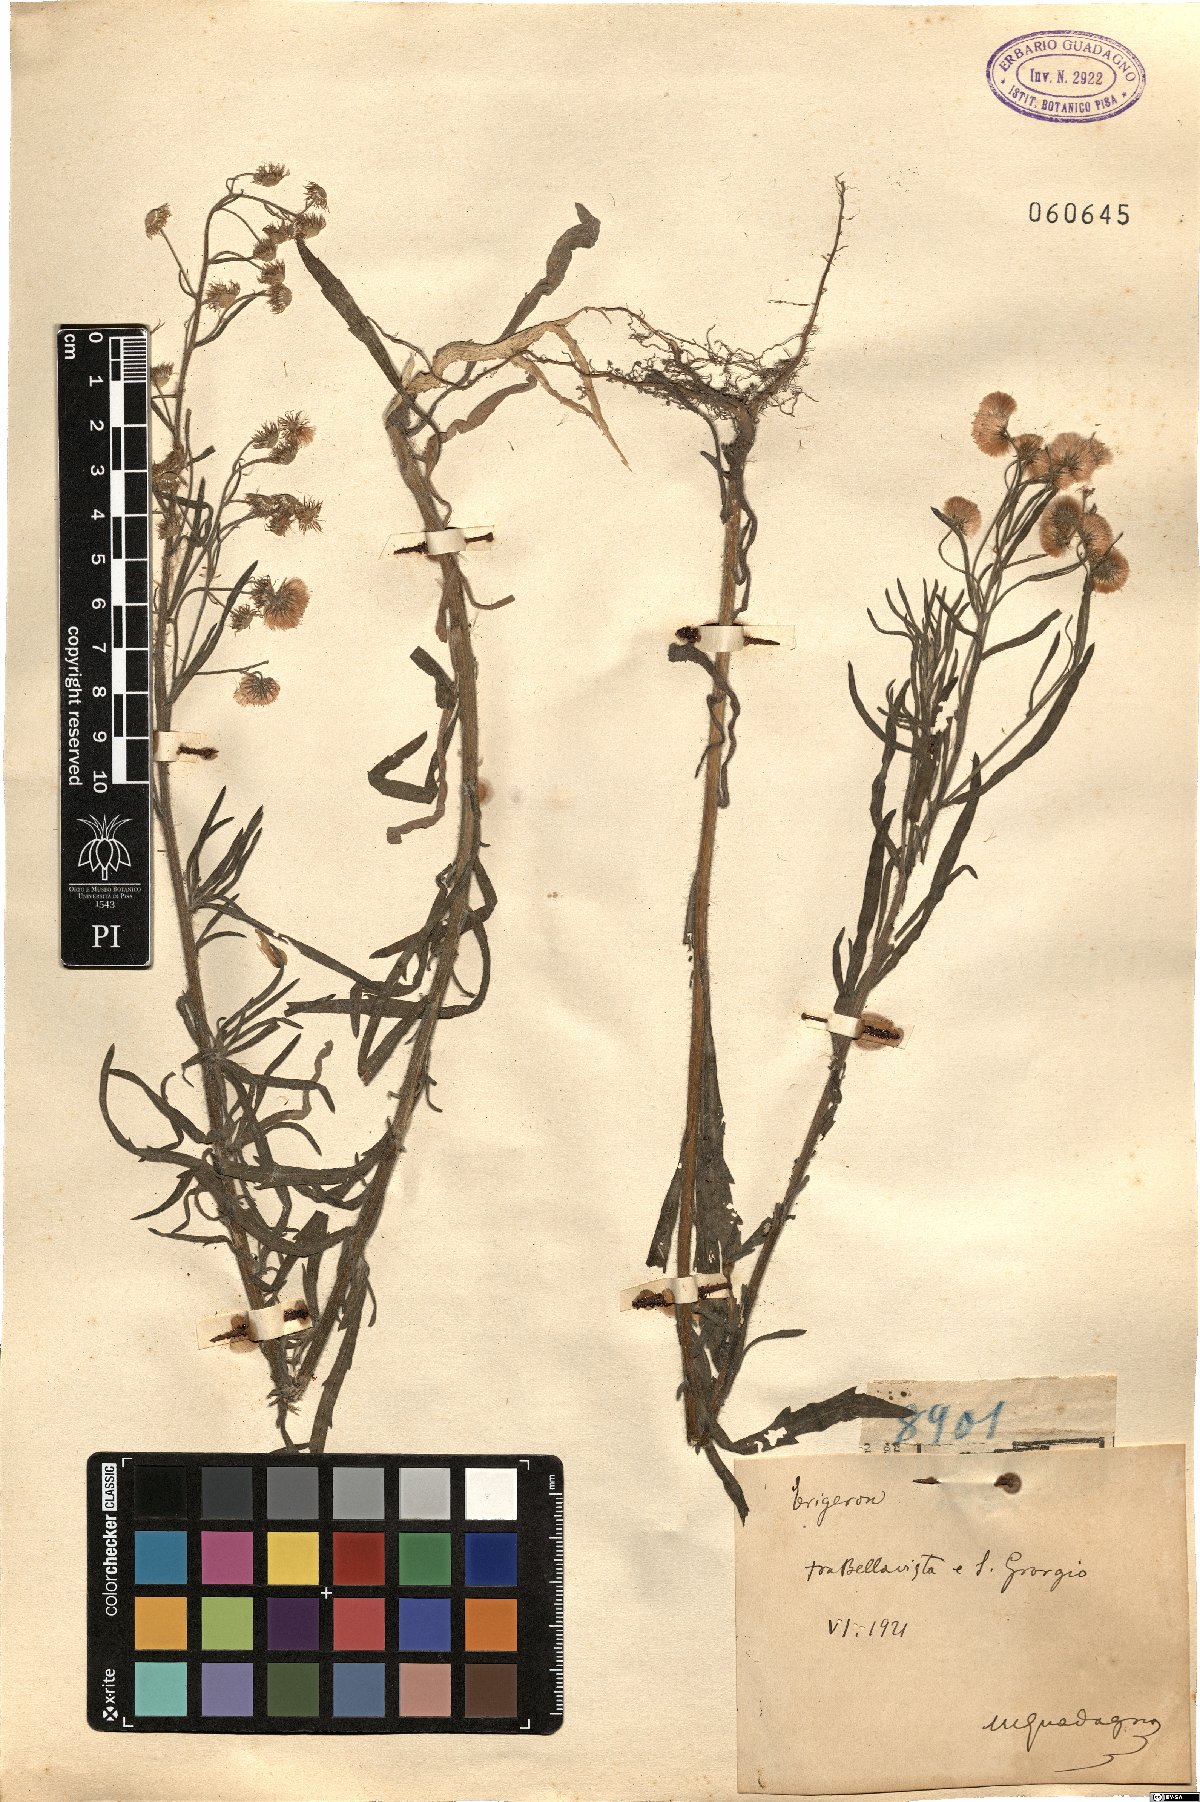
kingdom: Plantae
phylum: Tracheophyta
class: Magnoliopsida
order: Asterales
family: Asteraceae
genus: Erigeron
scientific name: Erigeron
